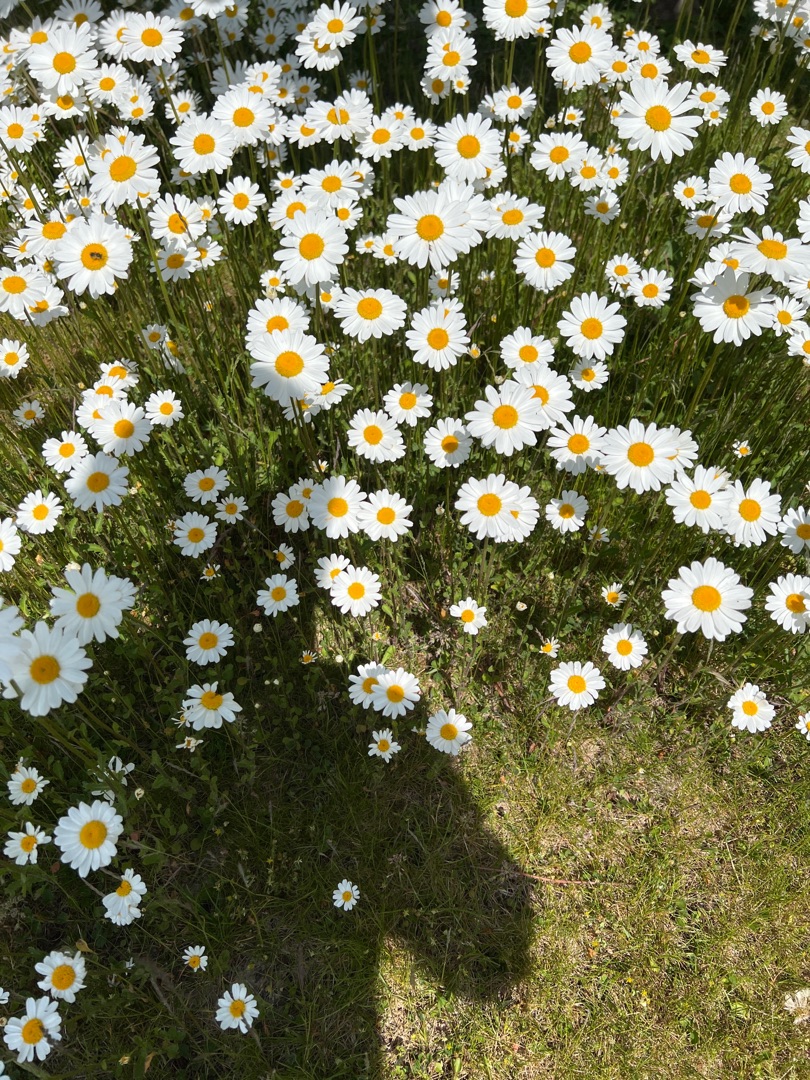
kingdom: Plantae
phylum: Tracheophyta
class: Magnoliopsida
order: Asterales
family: Asteraceae
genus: Leucanthemum
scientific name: Leucanthemum vulgare
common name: Hvid okseøje
